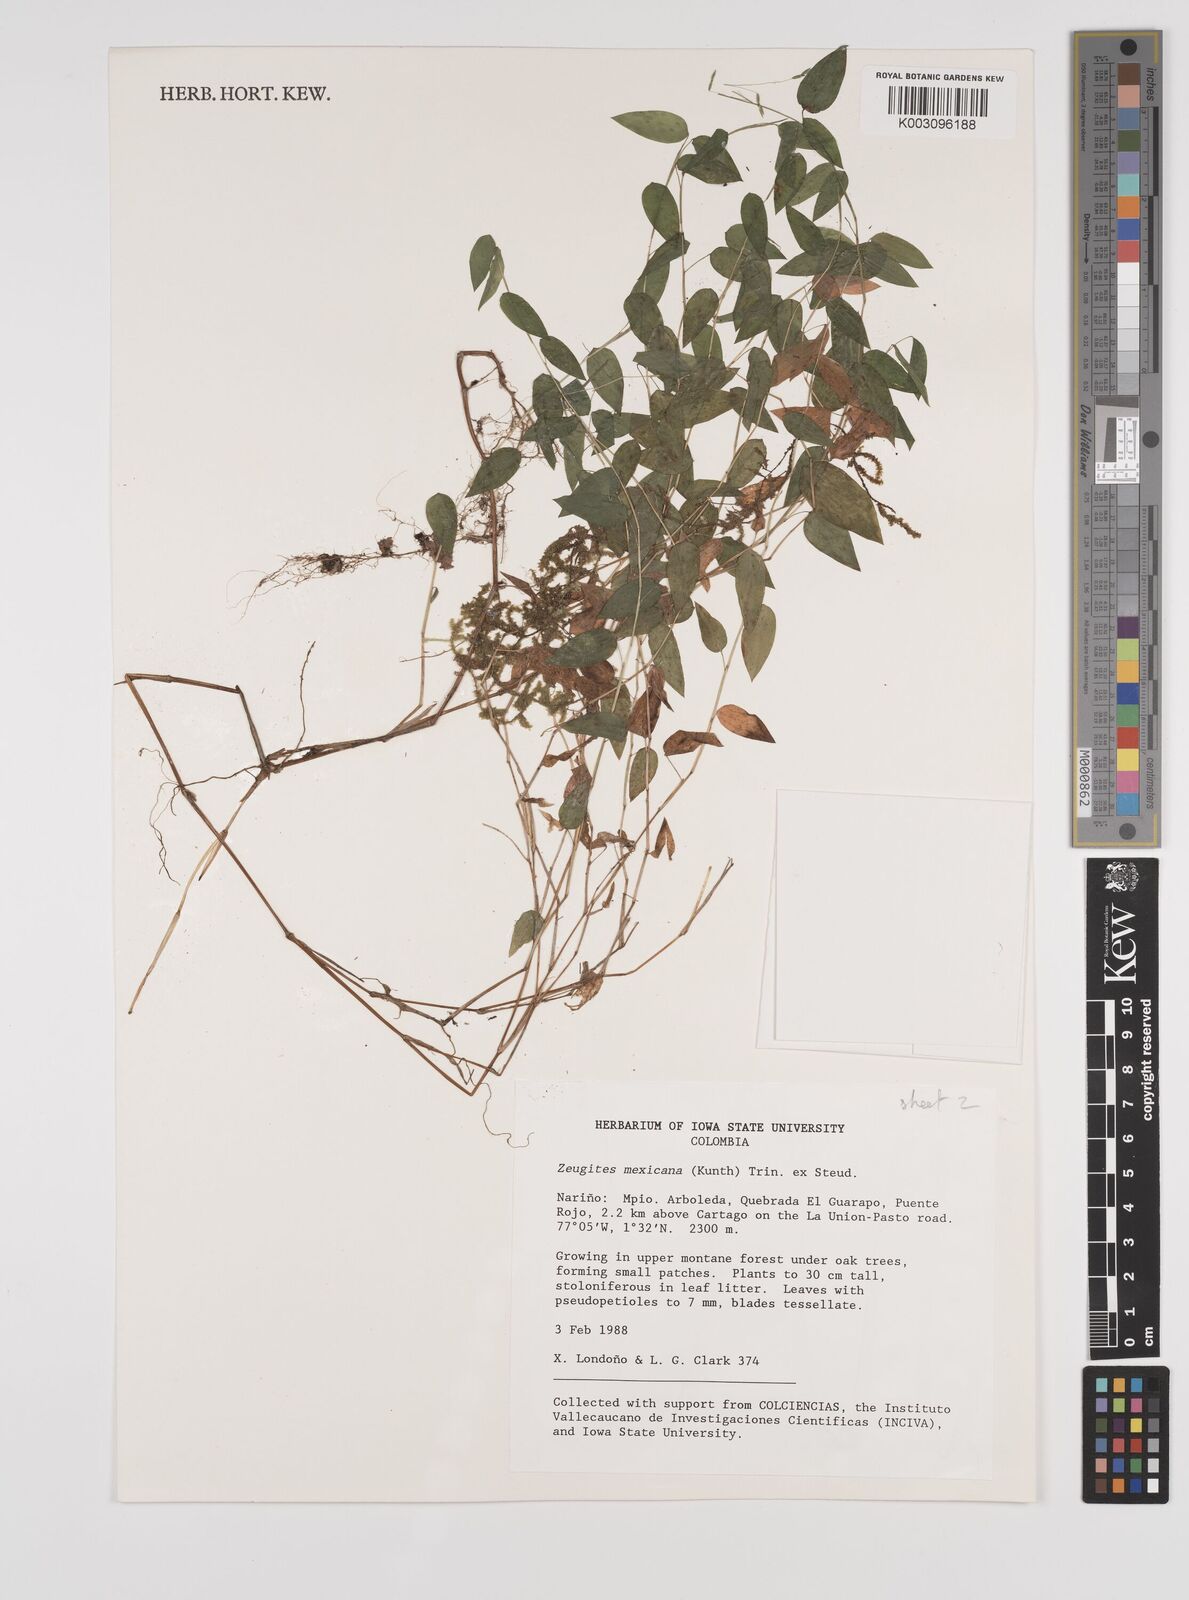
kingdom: Plantae
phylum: Tracheophyta
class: Liliopsida
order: Poales
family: Poaceae
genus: Zeugites
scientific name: Zeugites americanus
